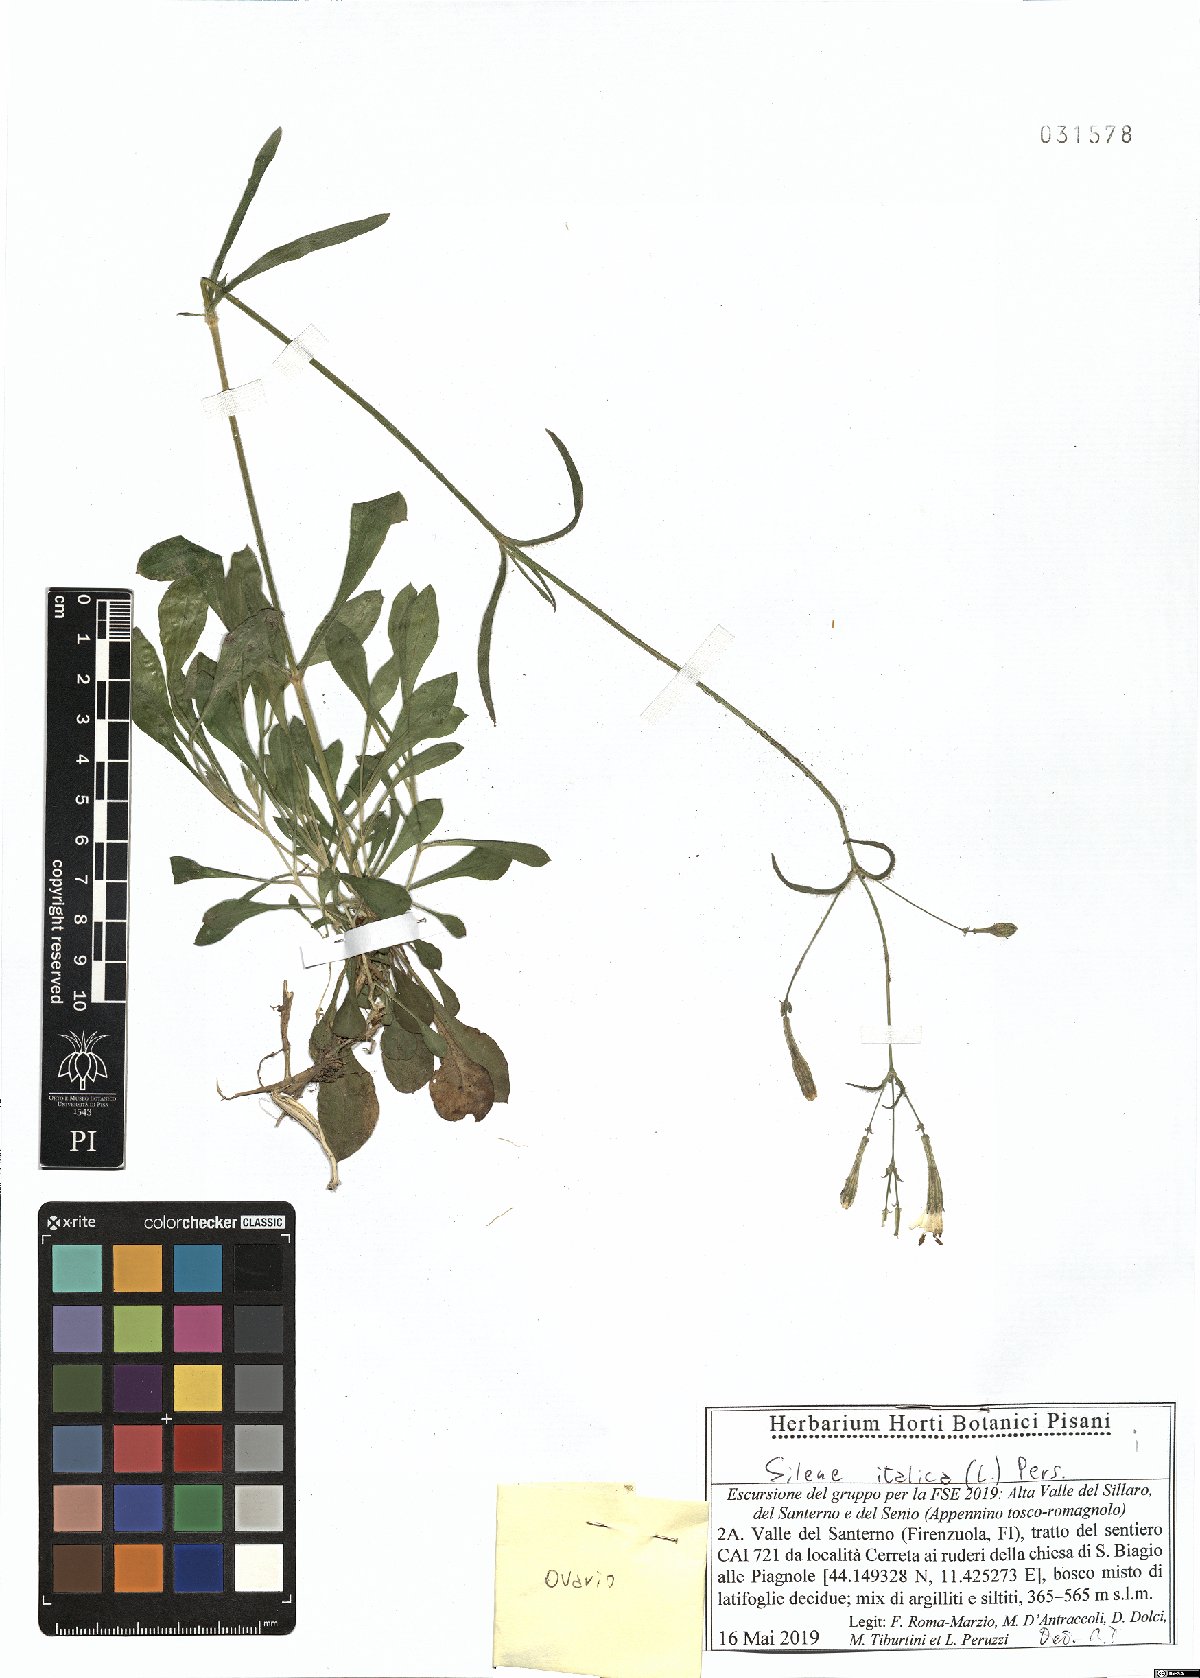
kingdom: Plantae
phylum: Tracheophyta
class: Magnoliopsida
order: Caryophyllales
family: Caryophyllaceae
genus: Silene
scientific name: Silene italica
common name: Italian catchfly
